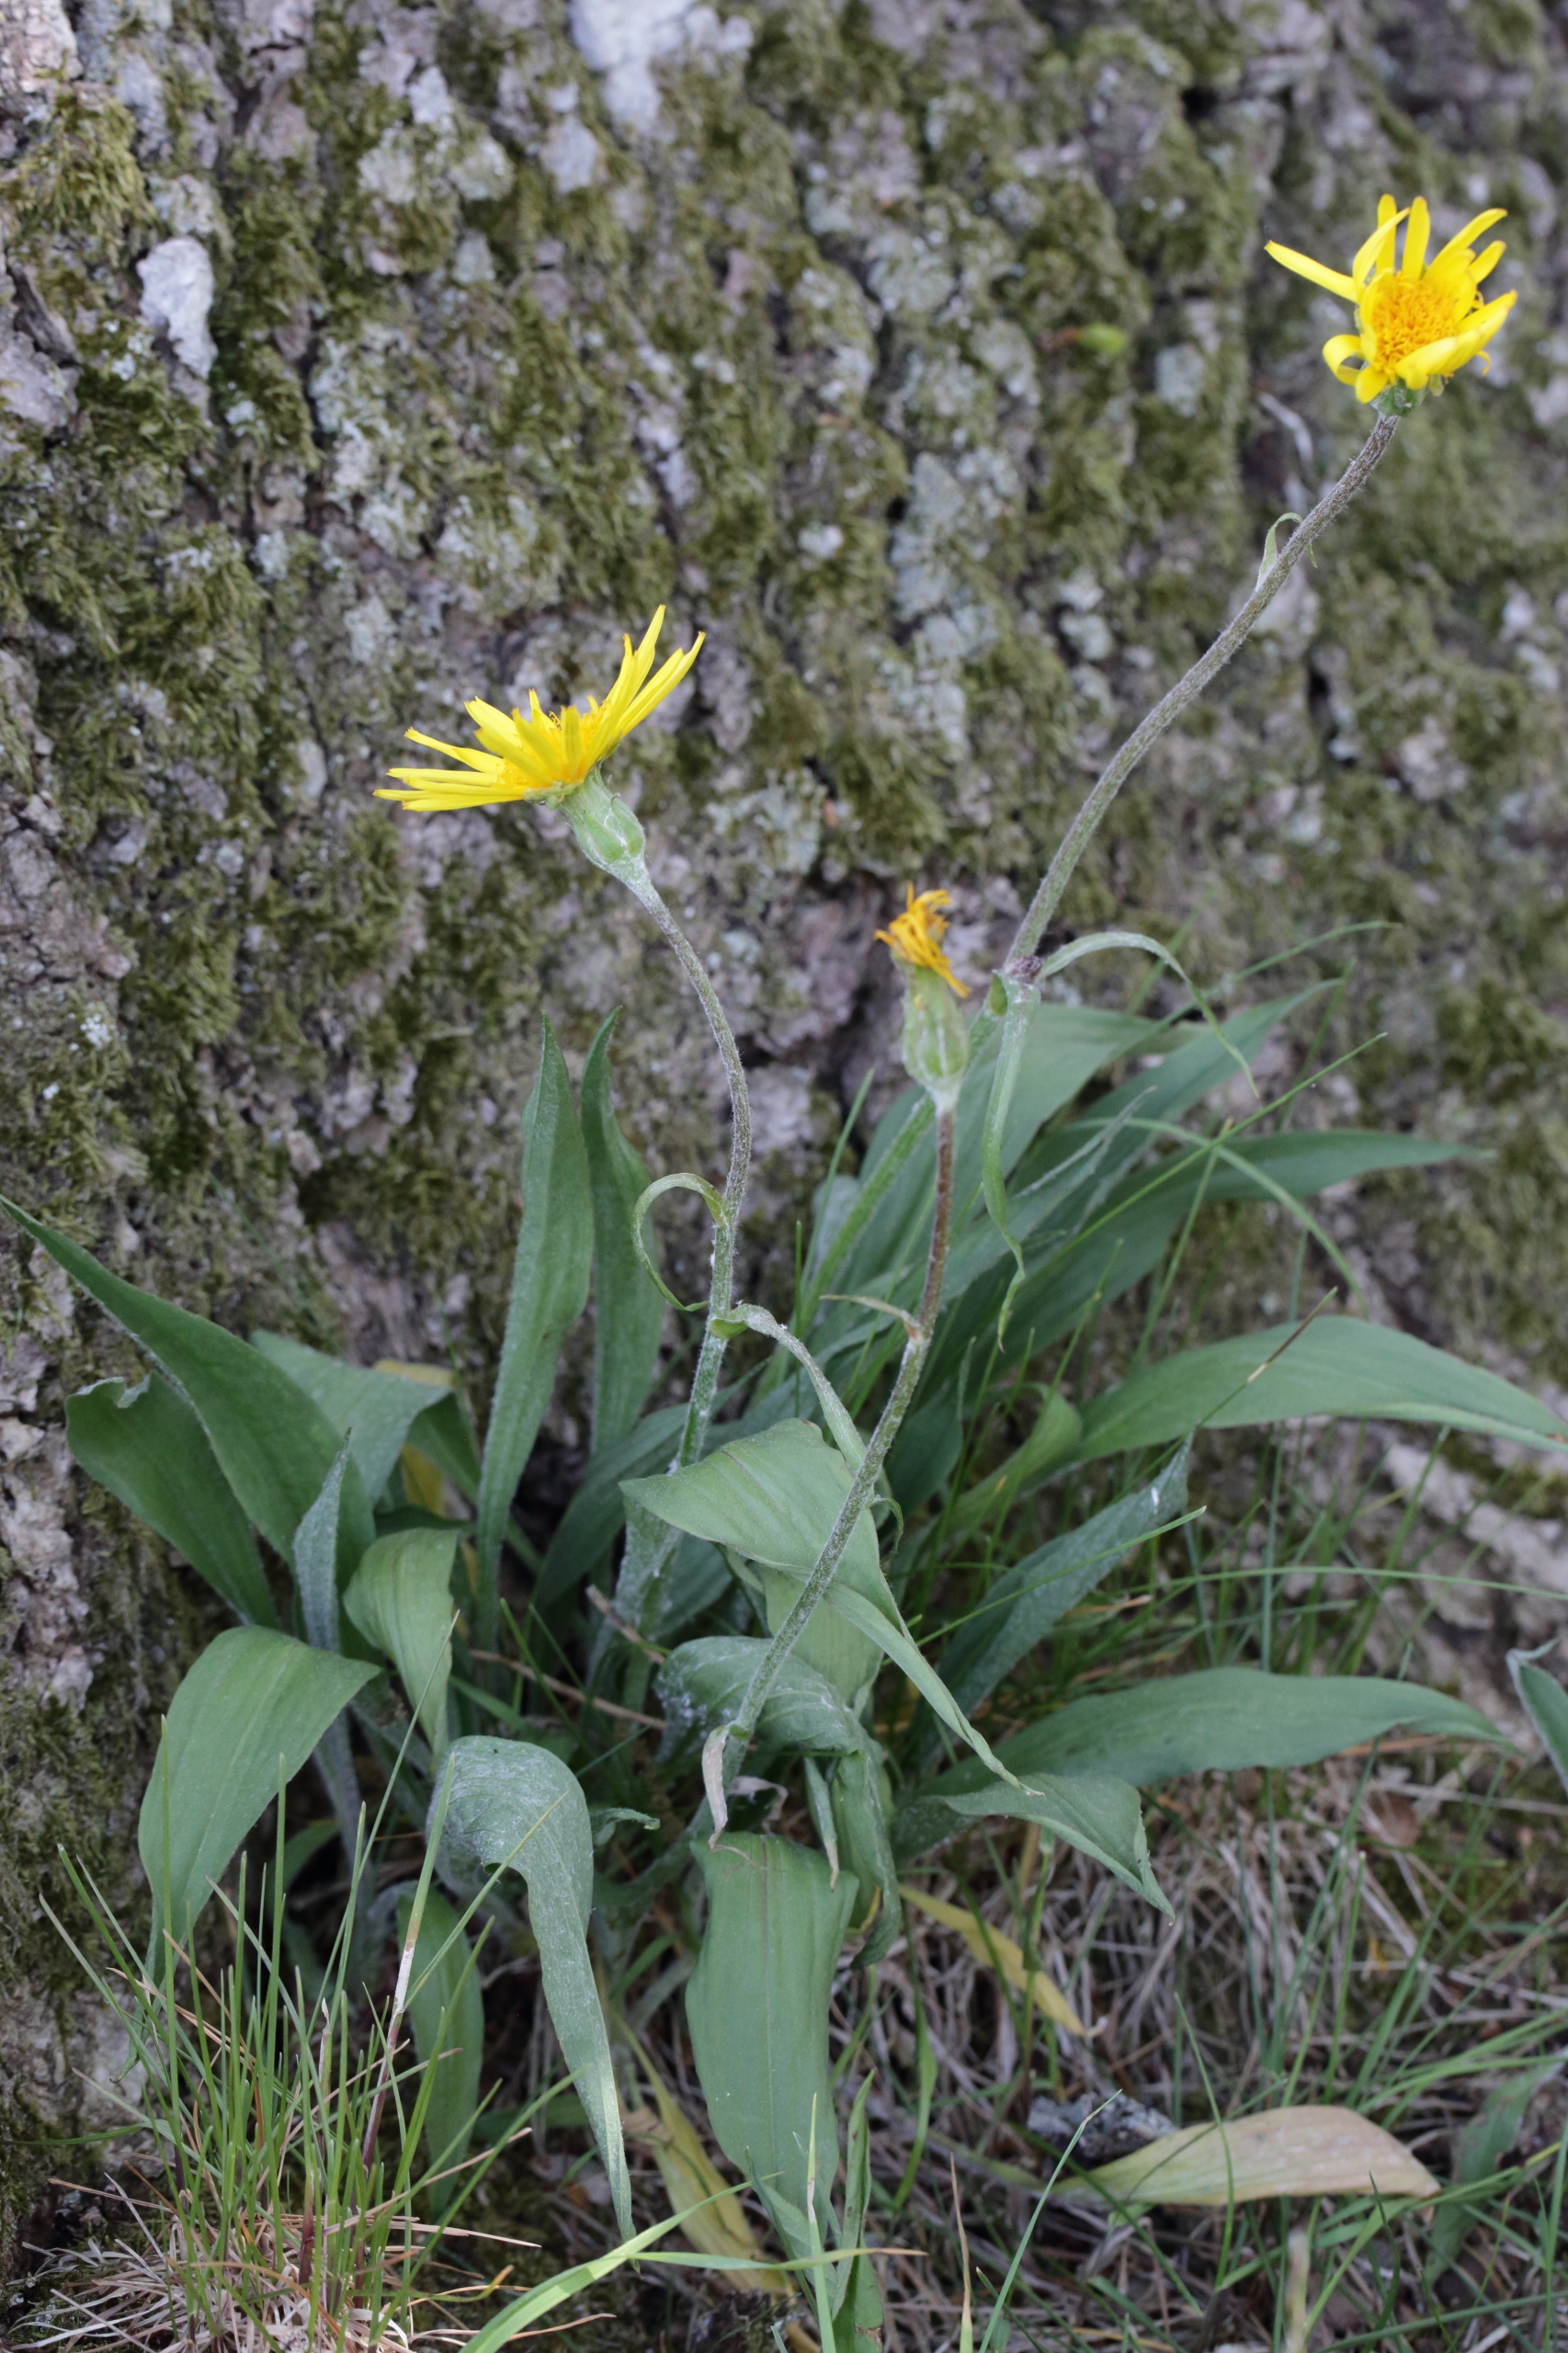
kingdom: Plantae
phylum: Tracheophyta
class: Magnoliopsida
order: Asterales
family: Asteraceae
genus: Scorzonera
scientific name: Scorzonera humilis
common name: Lav skorsoner
